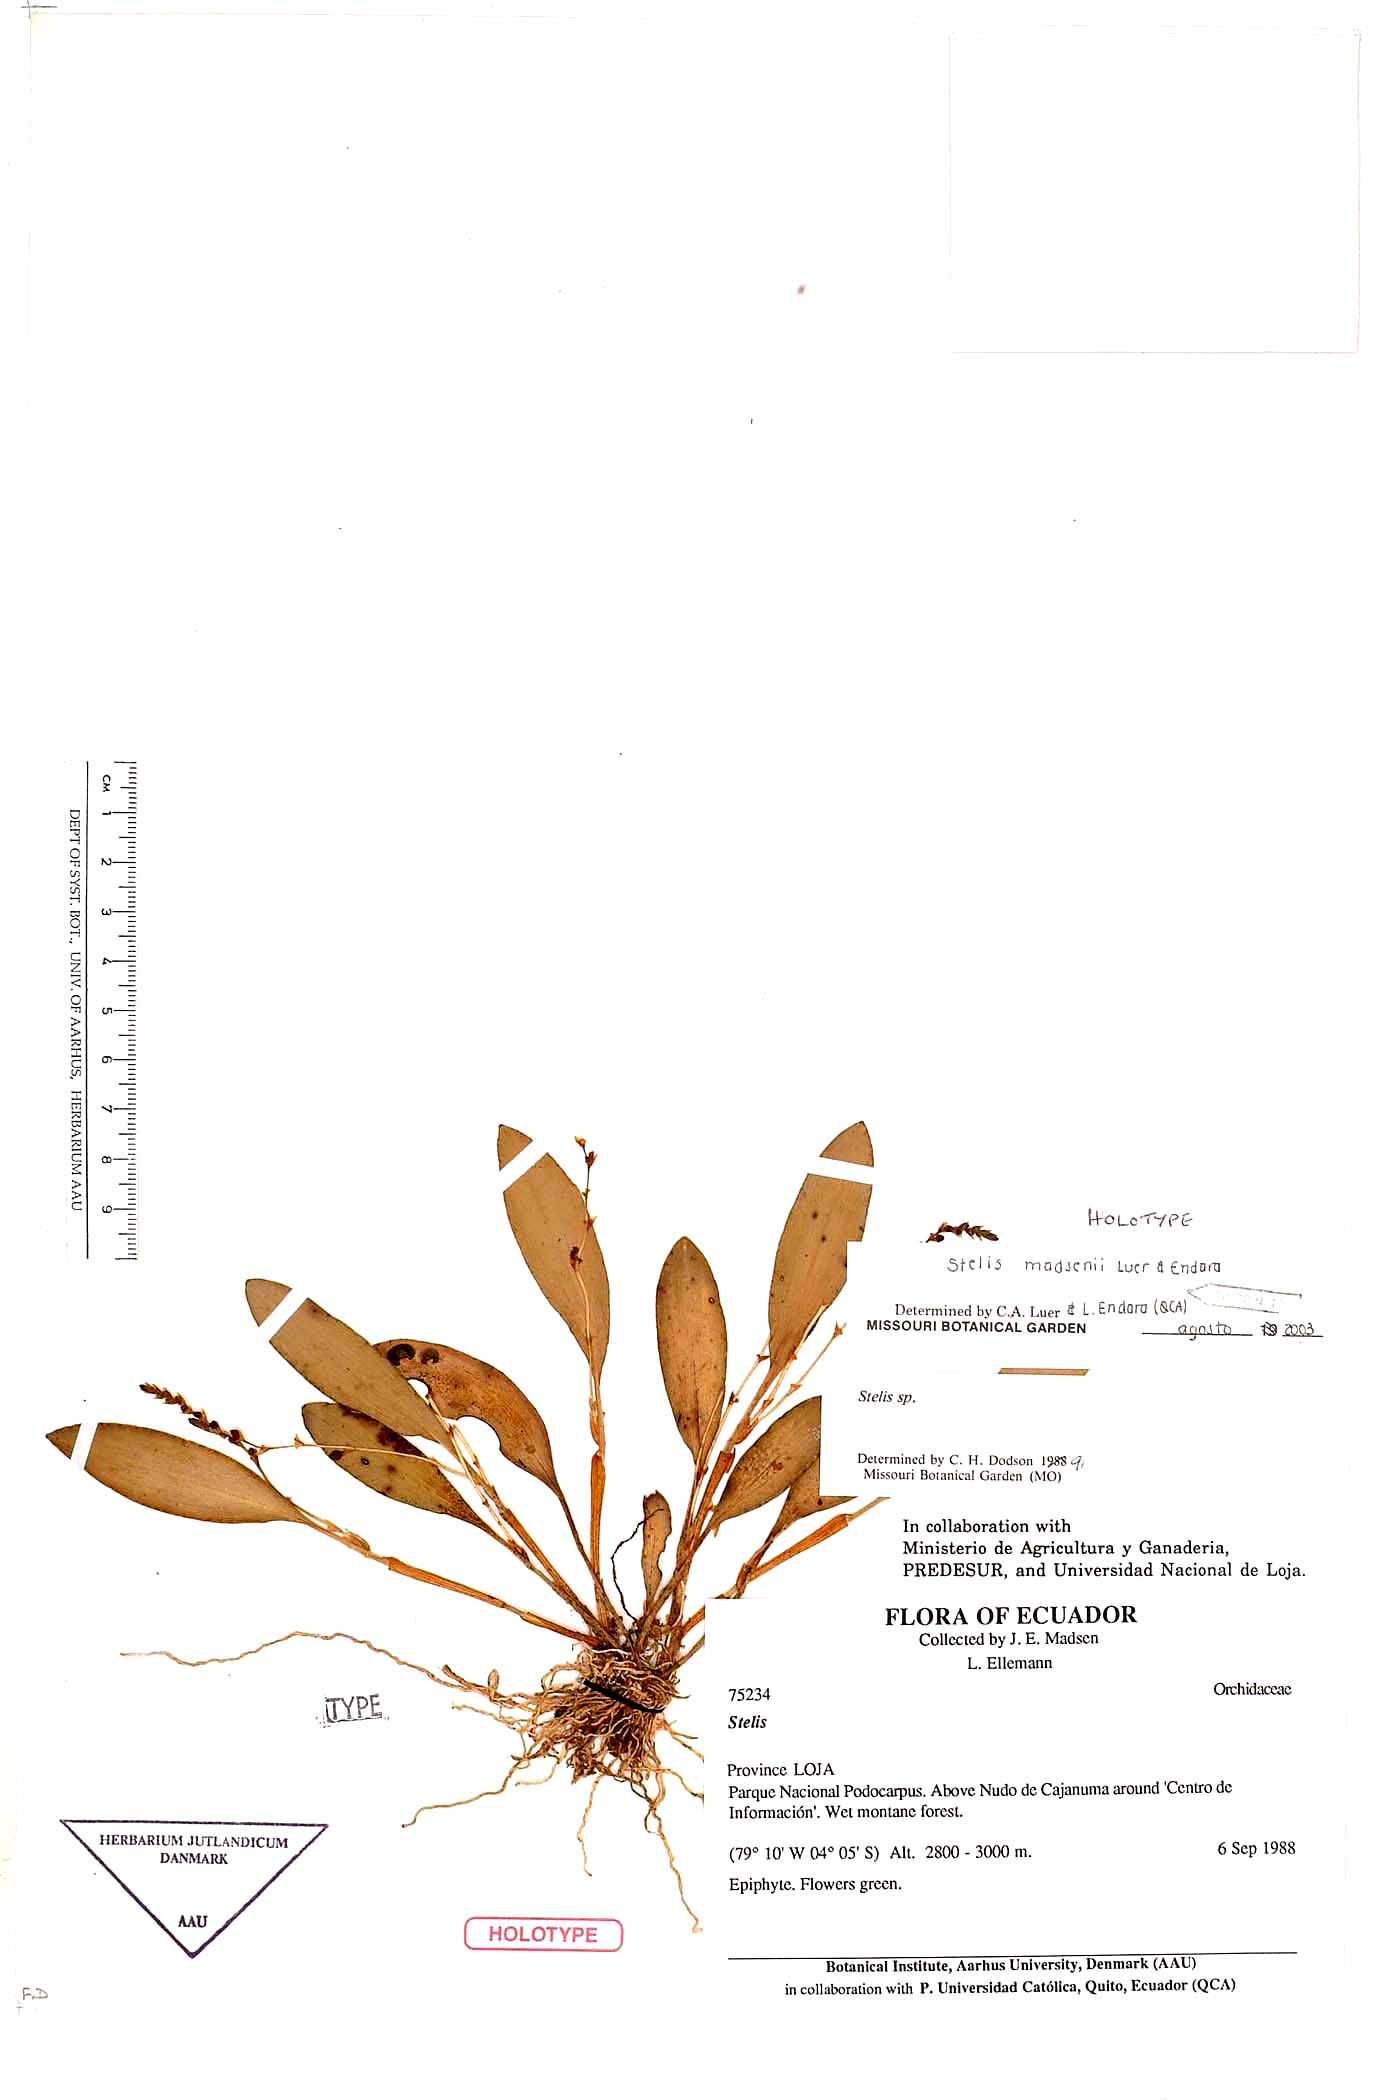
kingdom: Plantae
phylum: Tracheophyta
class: Liliopsida
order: Asparagales
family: Orchidaceae
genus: Stelis
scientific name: Stelis madsenii
